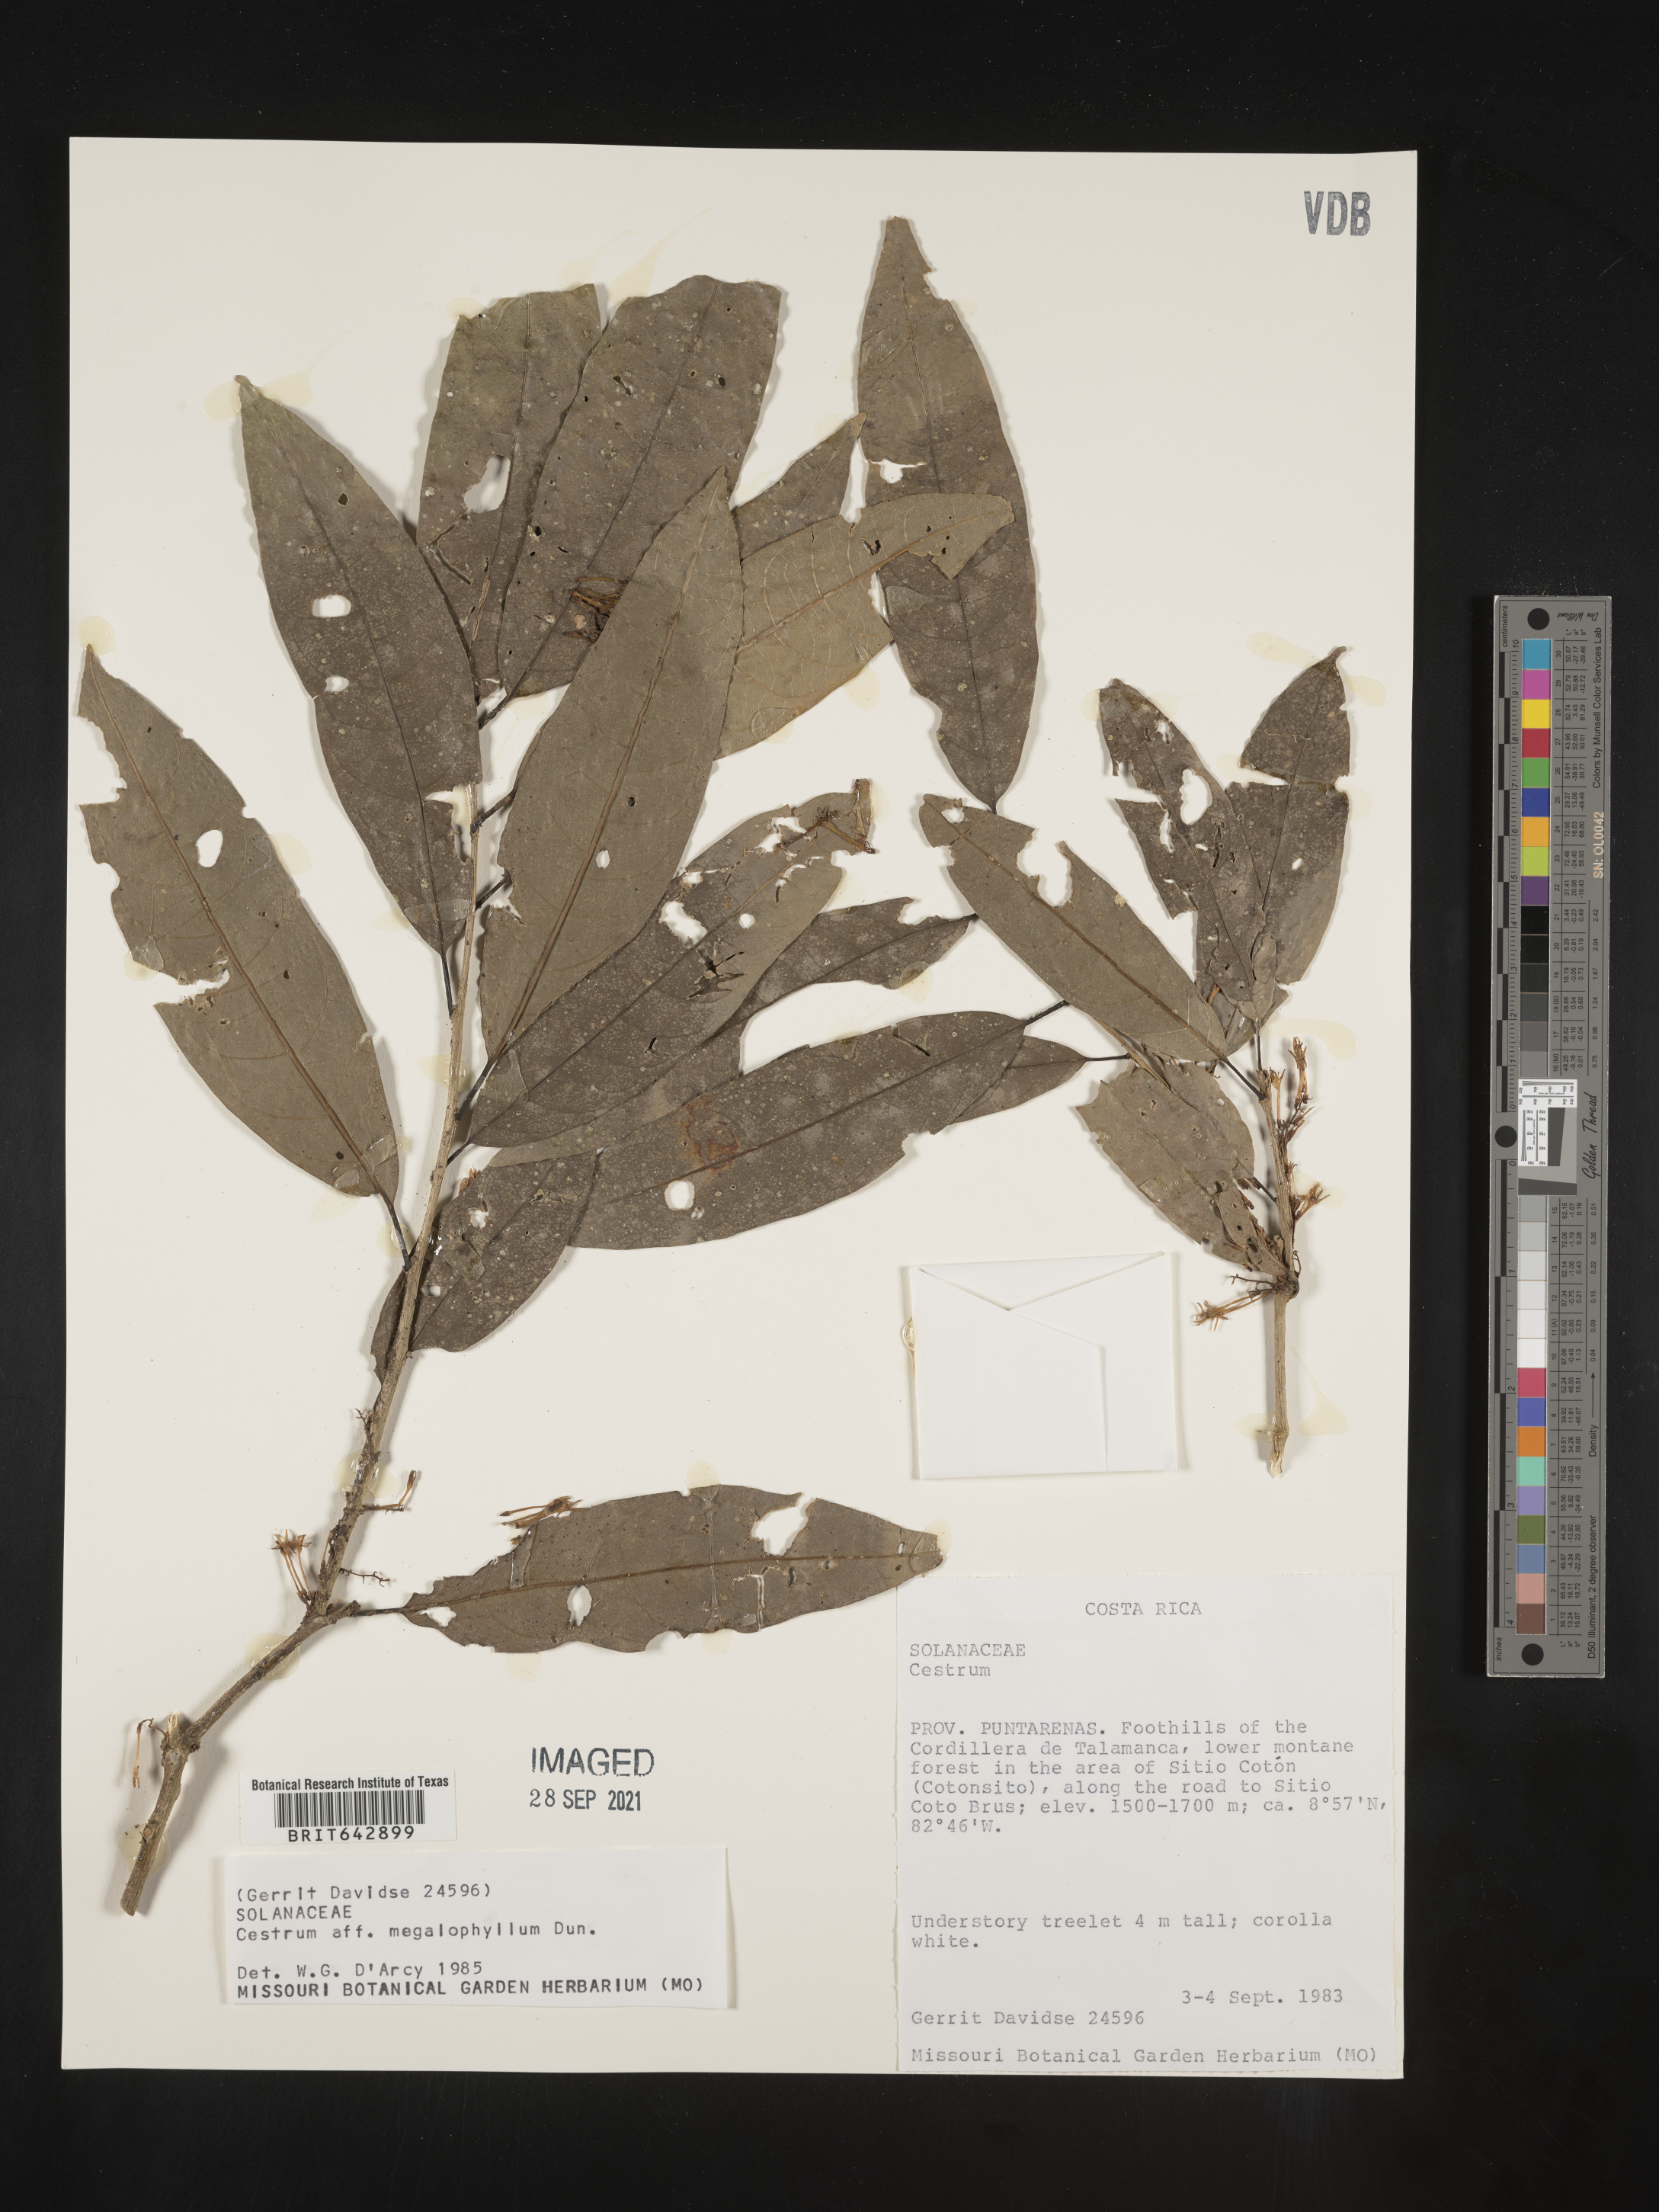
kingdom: Plantae
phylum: Tracheophyta
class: Magnoliopsida
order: Solanales
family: Solanaceae
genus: Cestrum
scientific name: Cestrum
